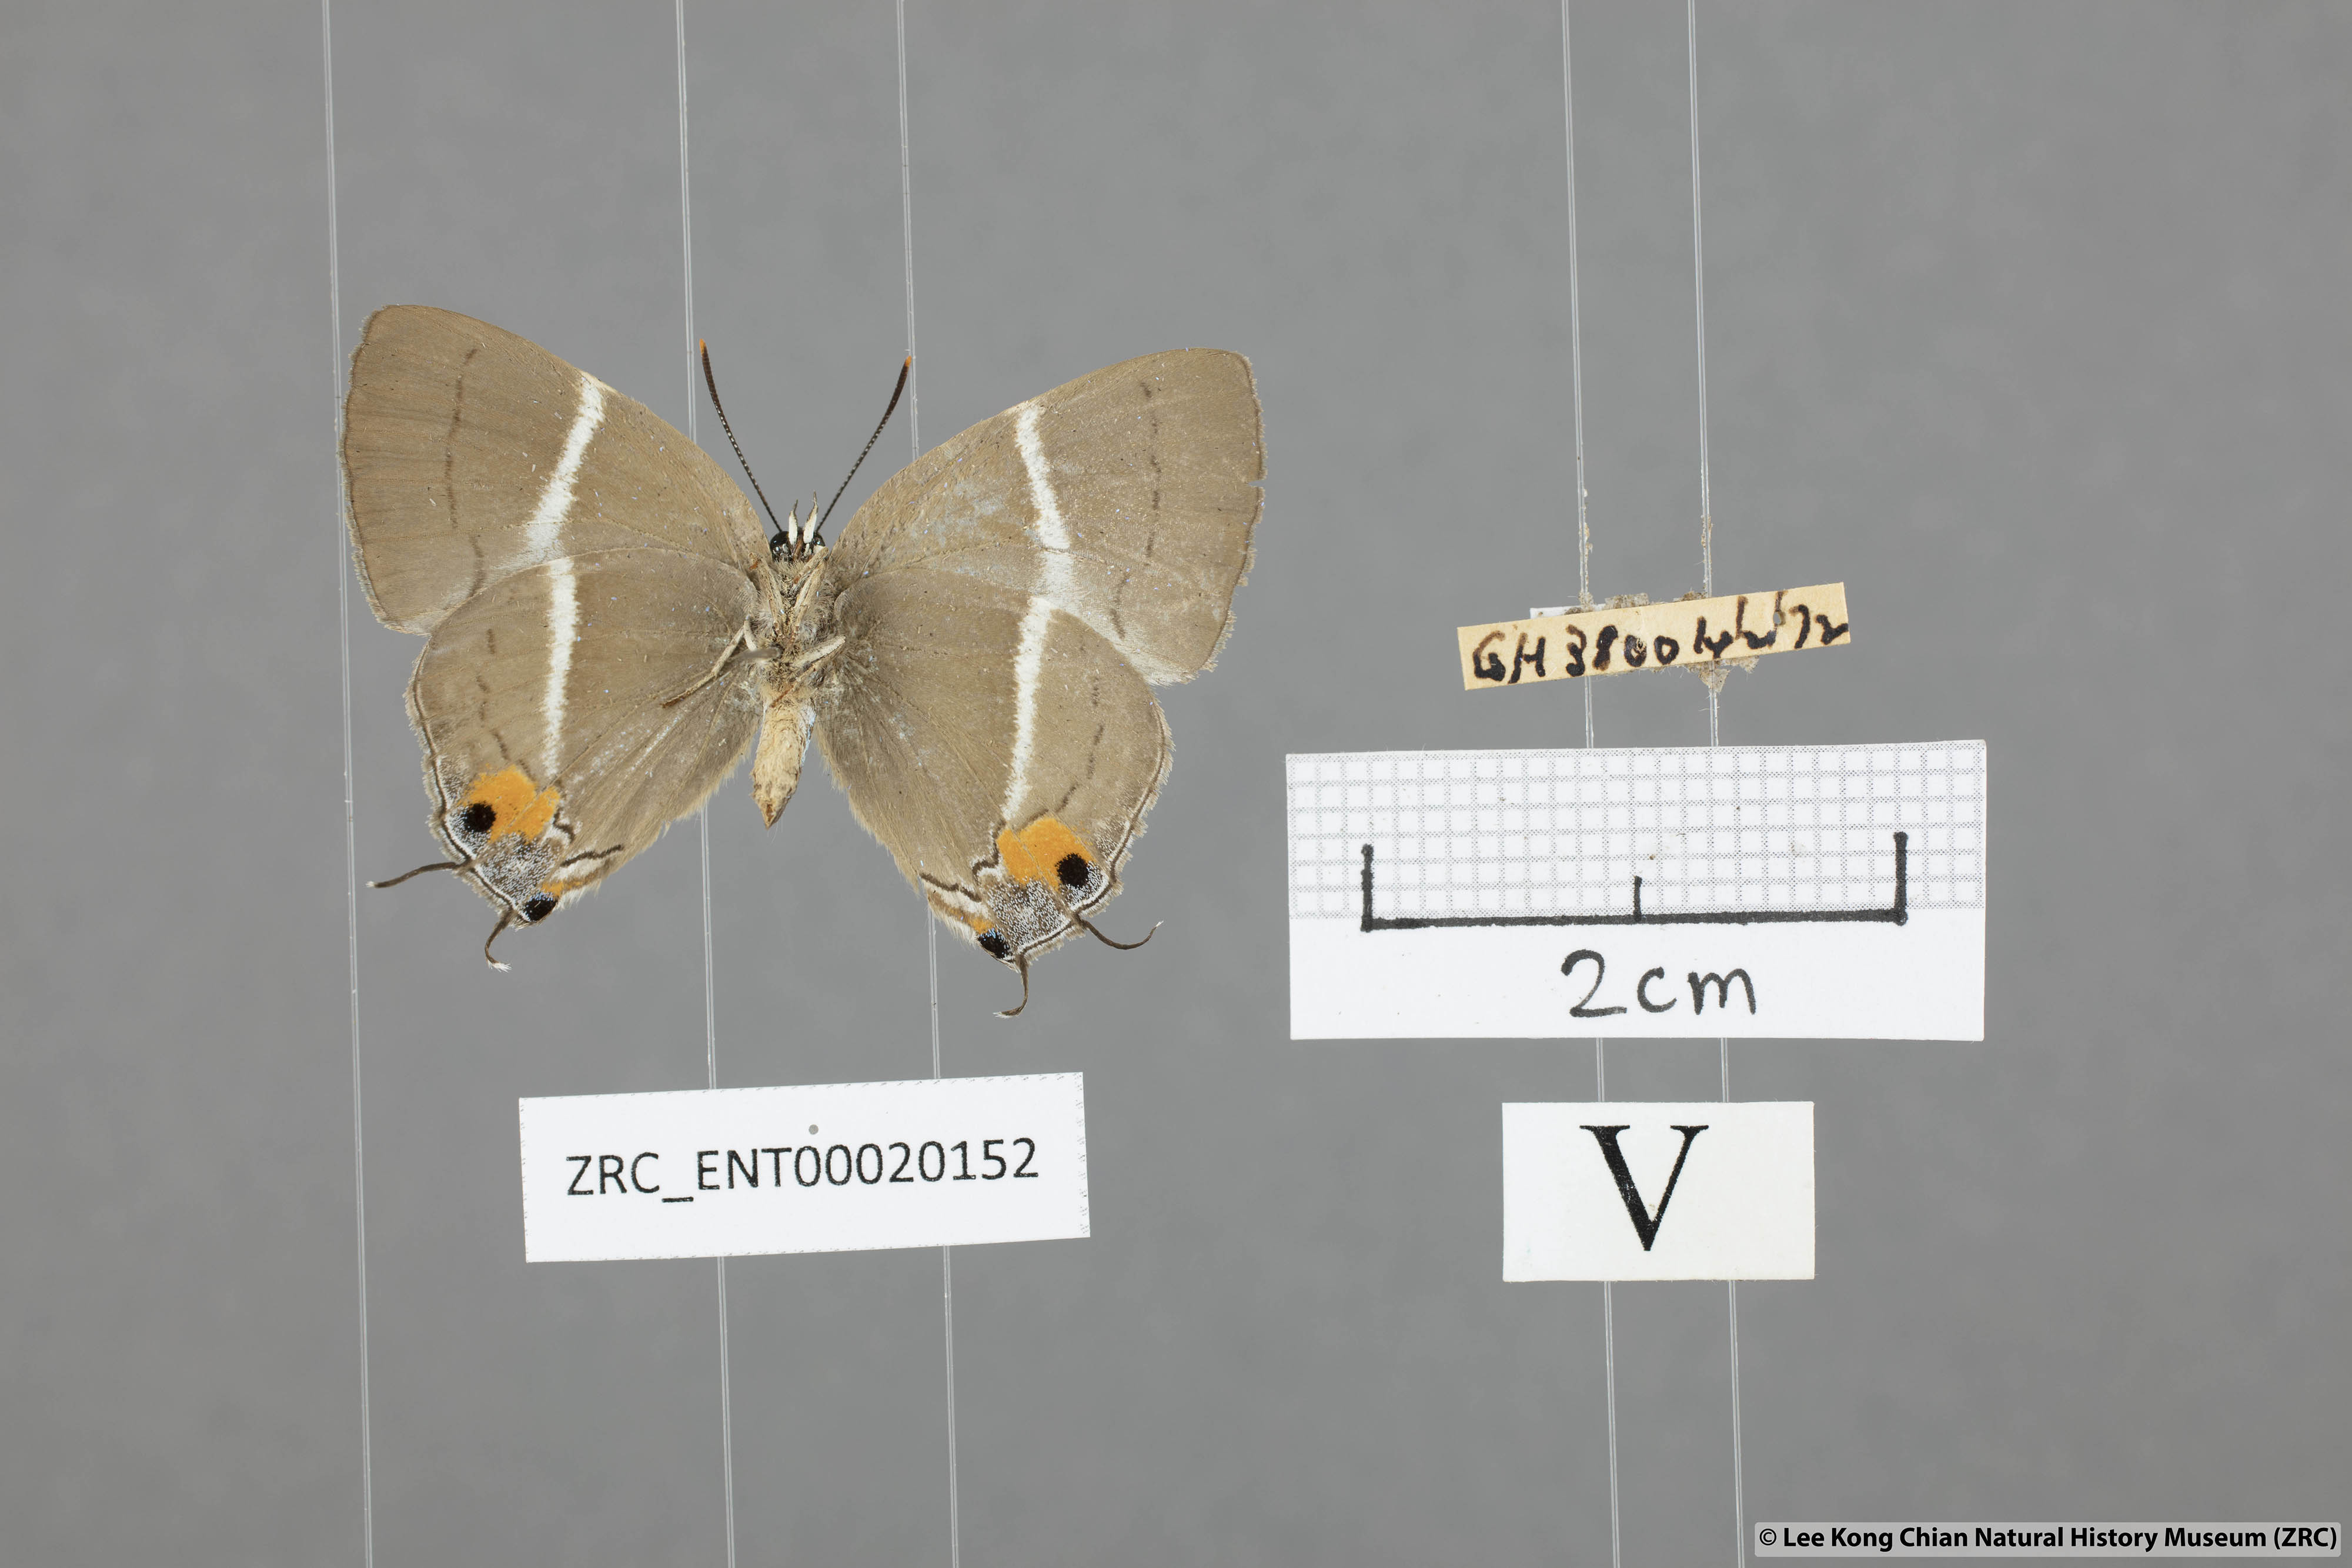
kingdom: Animalia
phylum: Arthropoda
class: Insecta
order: Lepidoptera
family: Lycaenidae
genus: Dacalana
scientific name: Dacalana
